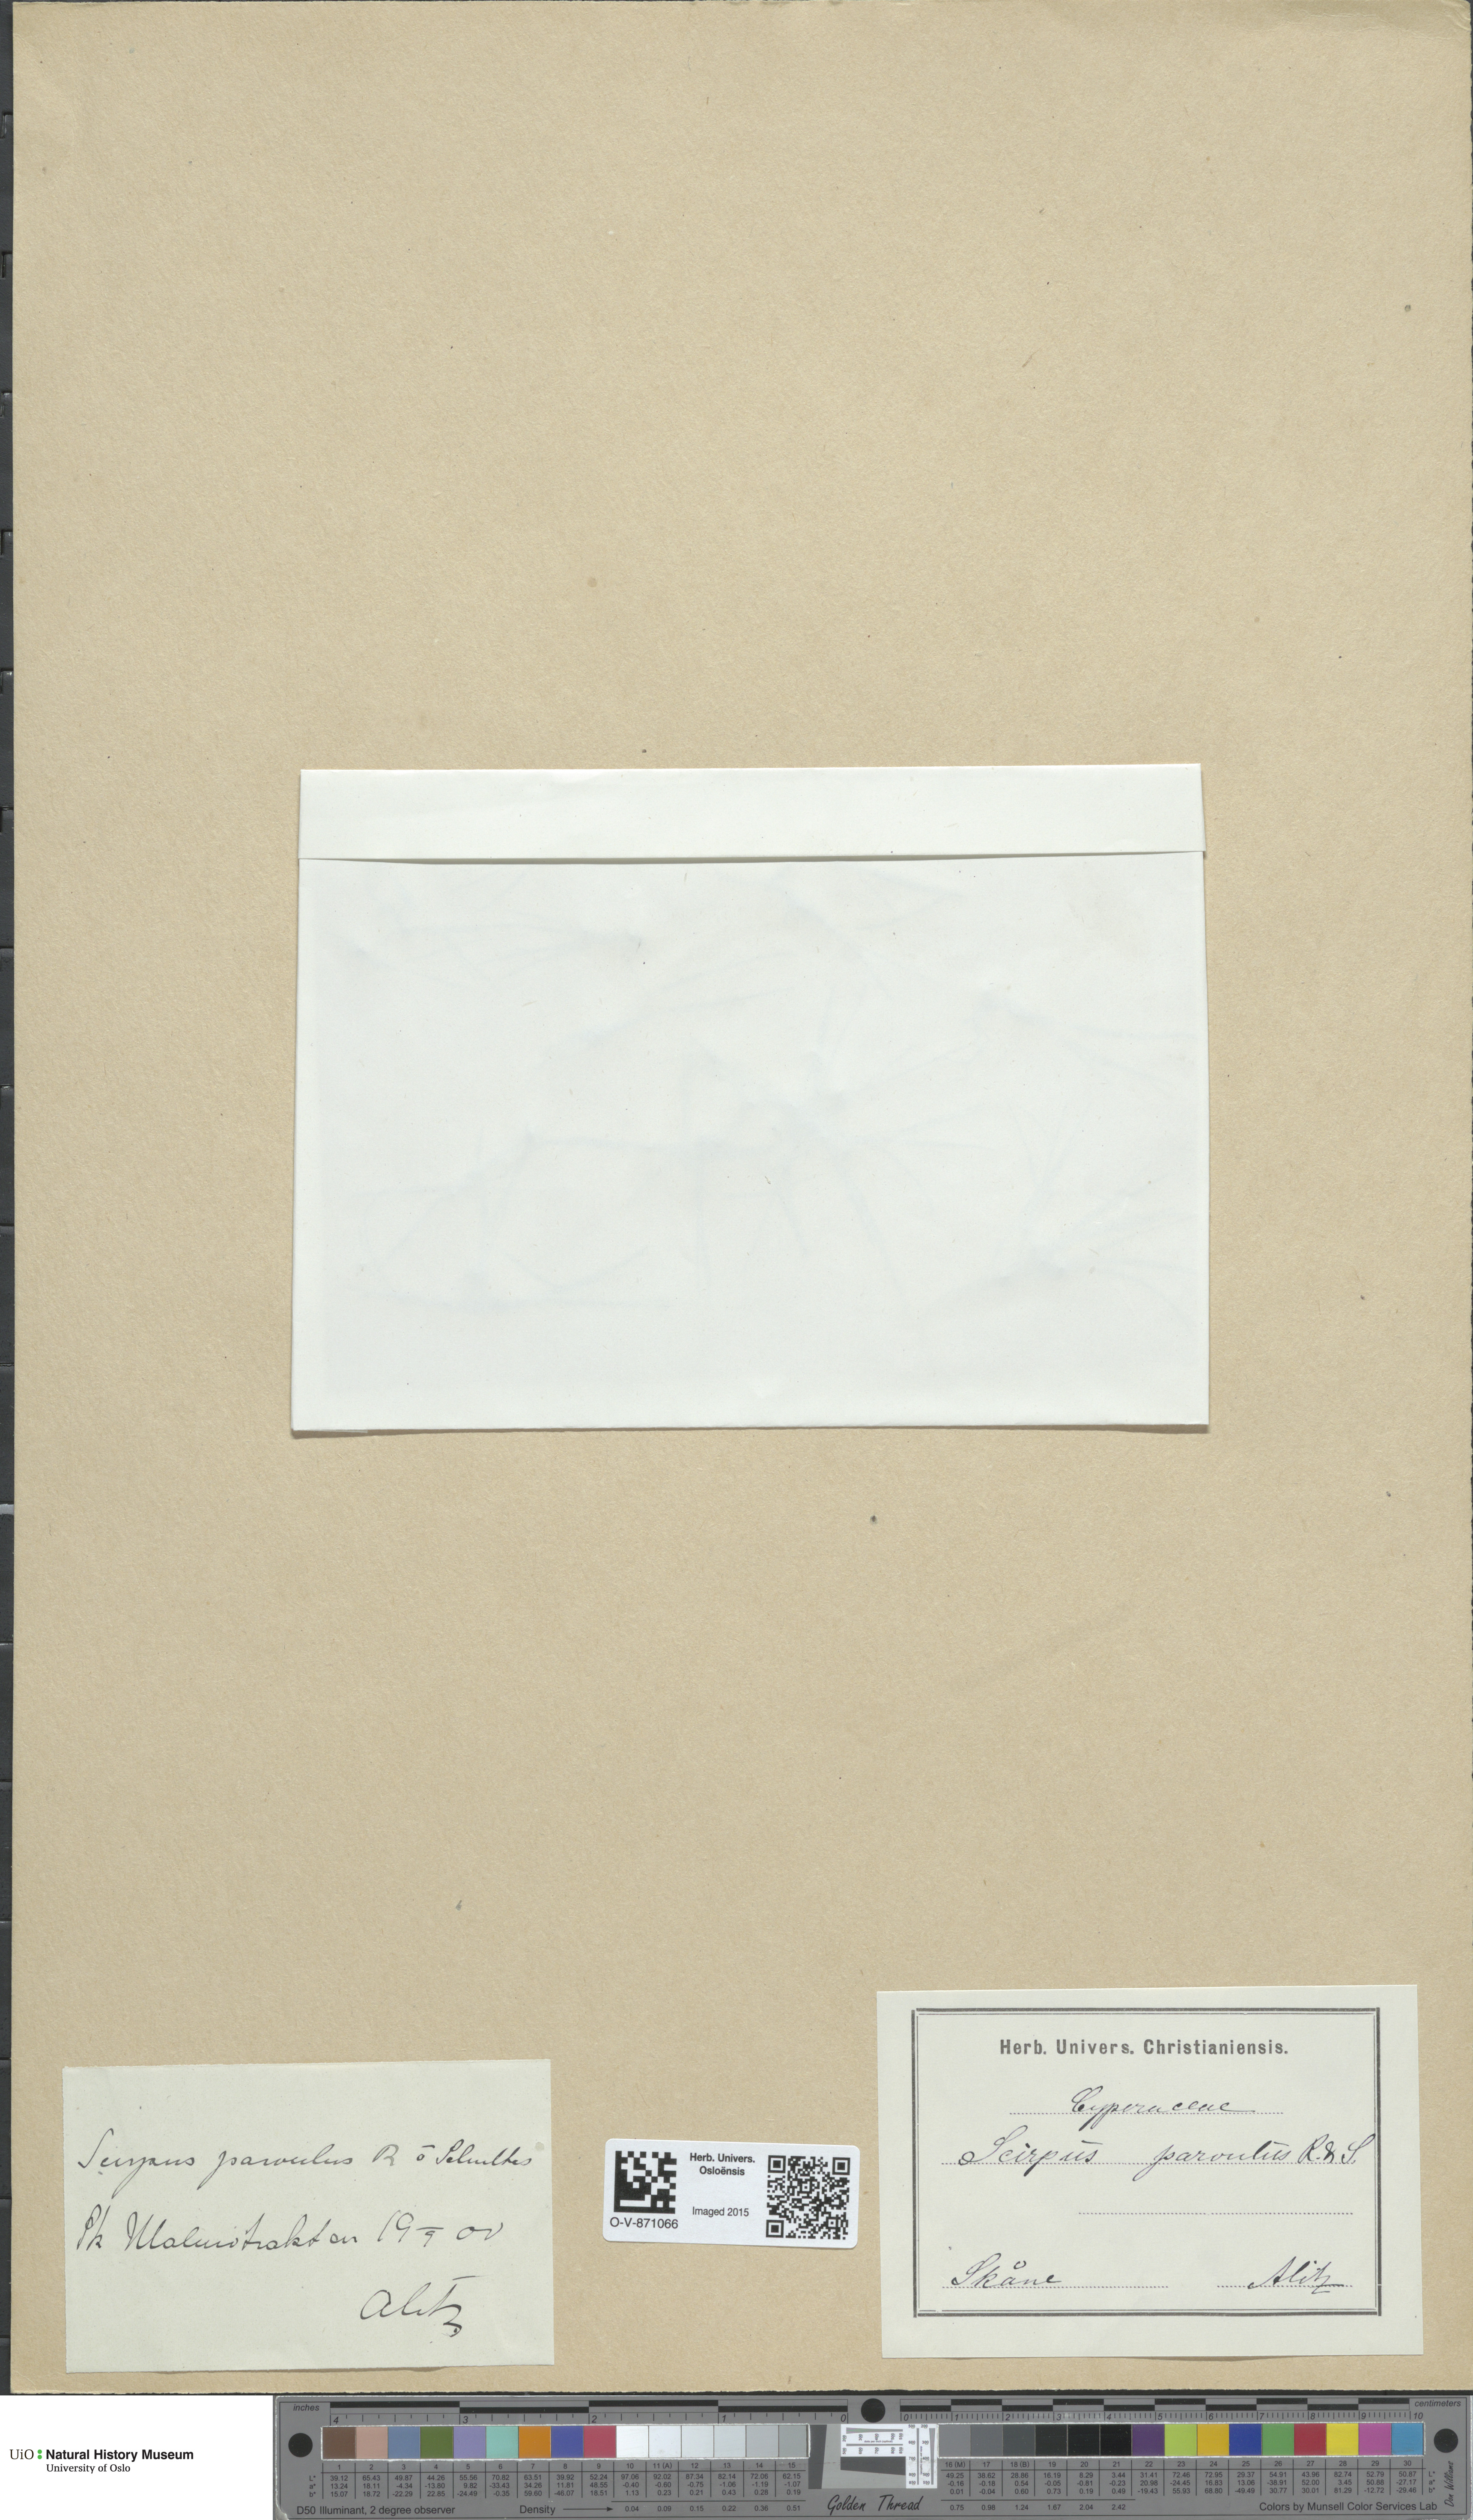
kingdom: Plantae
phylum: Tracheophyta
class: Liliopsida
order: Poales
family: Cyperaceae
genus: Eleocharis
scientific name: Eleocharis parvula
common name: Dwarf spike-rush
